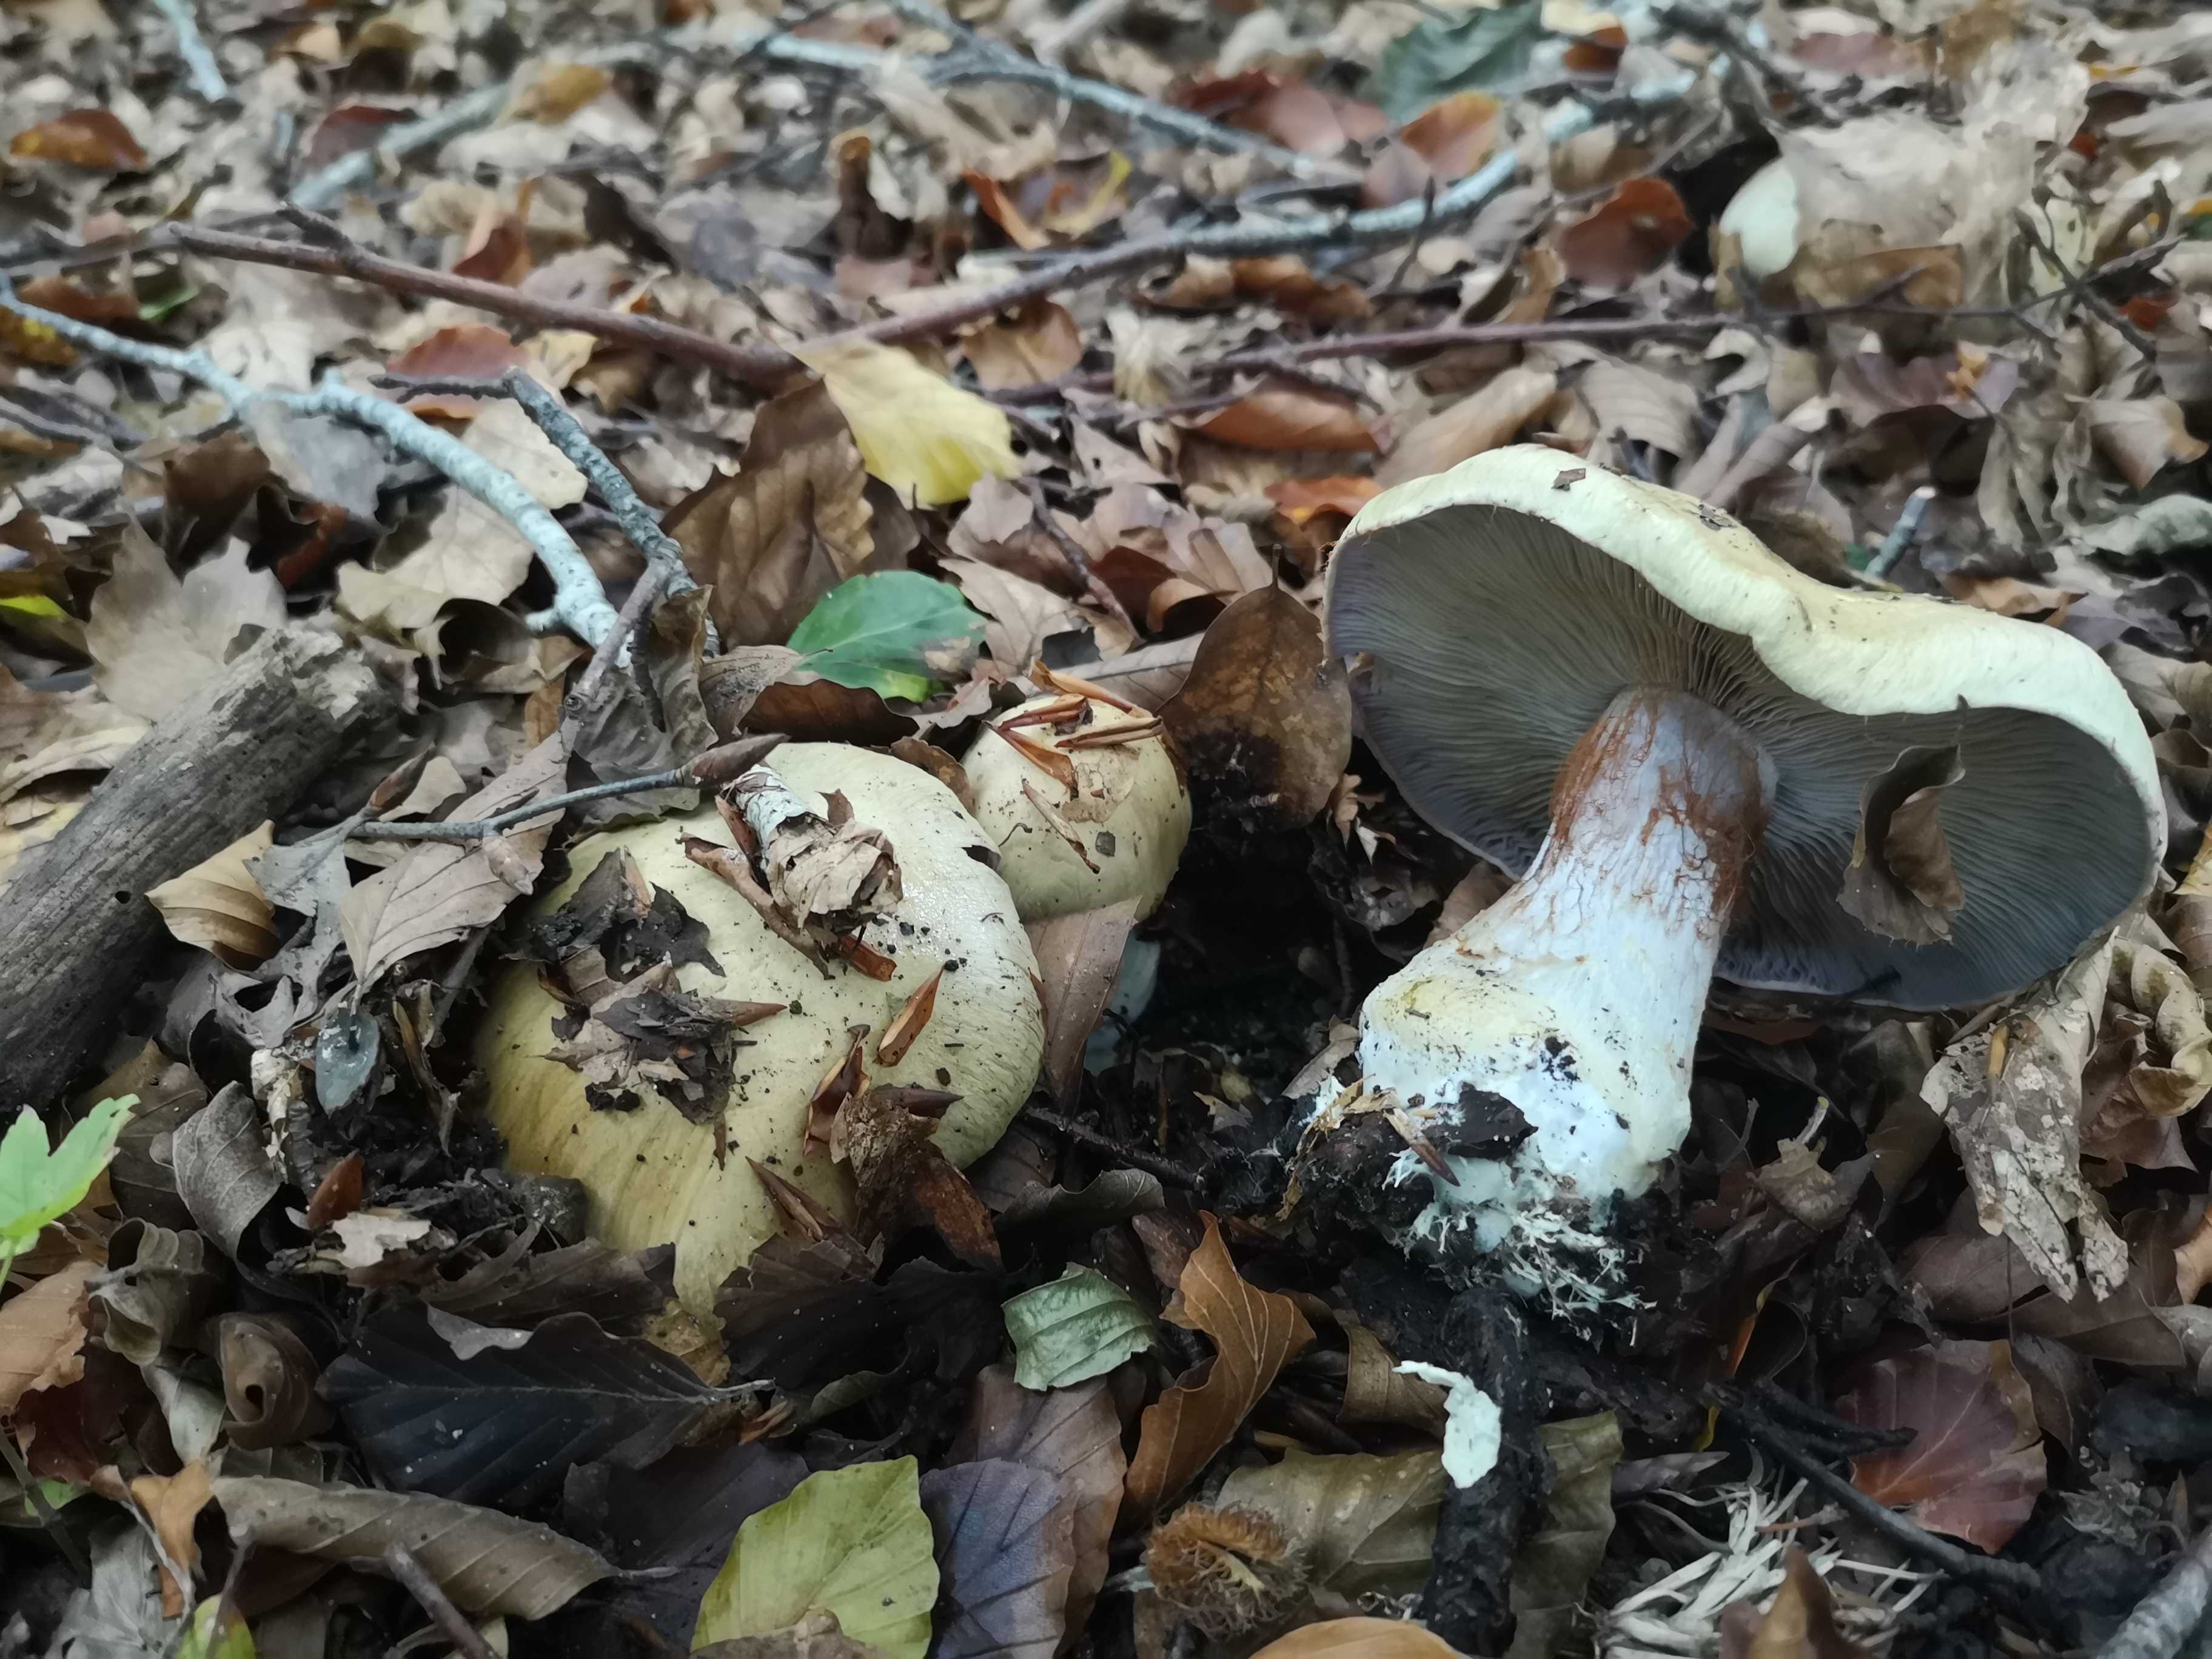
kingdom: Fungi
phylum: Basidiomycota
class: Agaricomycetes
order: Agaricales
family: Cortinariaceae
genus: Cortinarius
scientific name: Cortinarius anserinus
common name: bøge-slørhat
